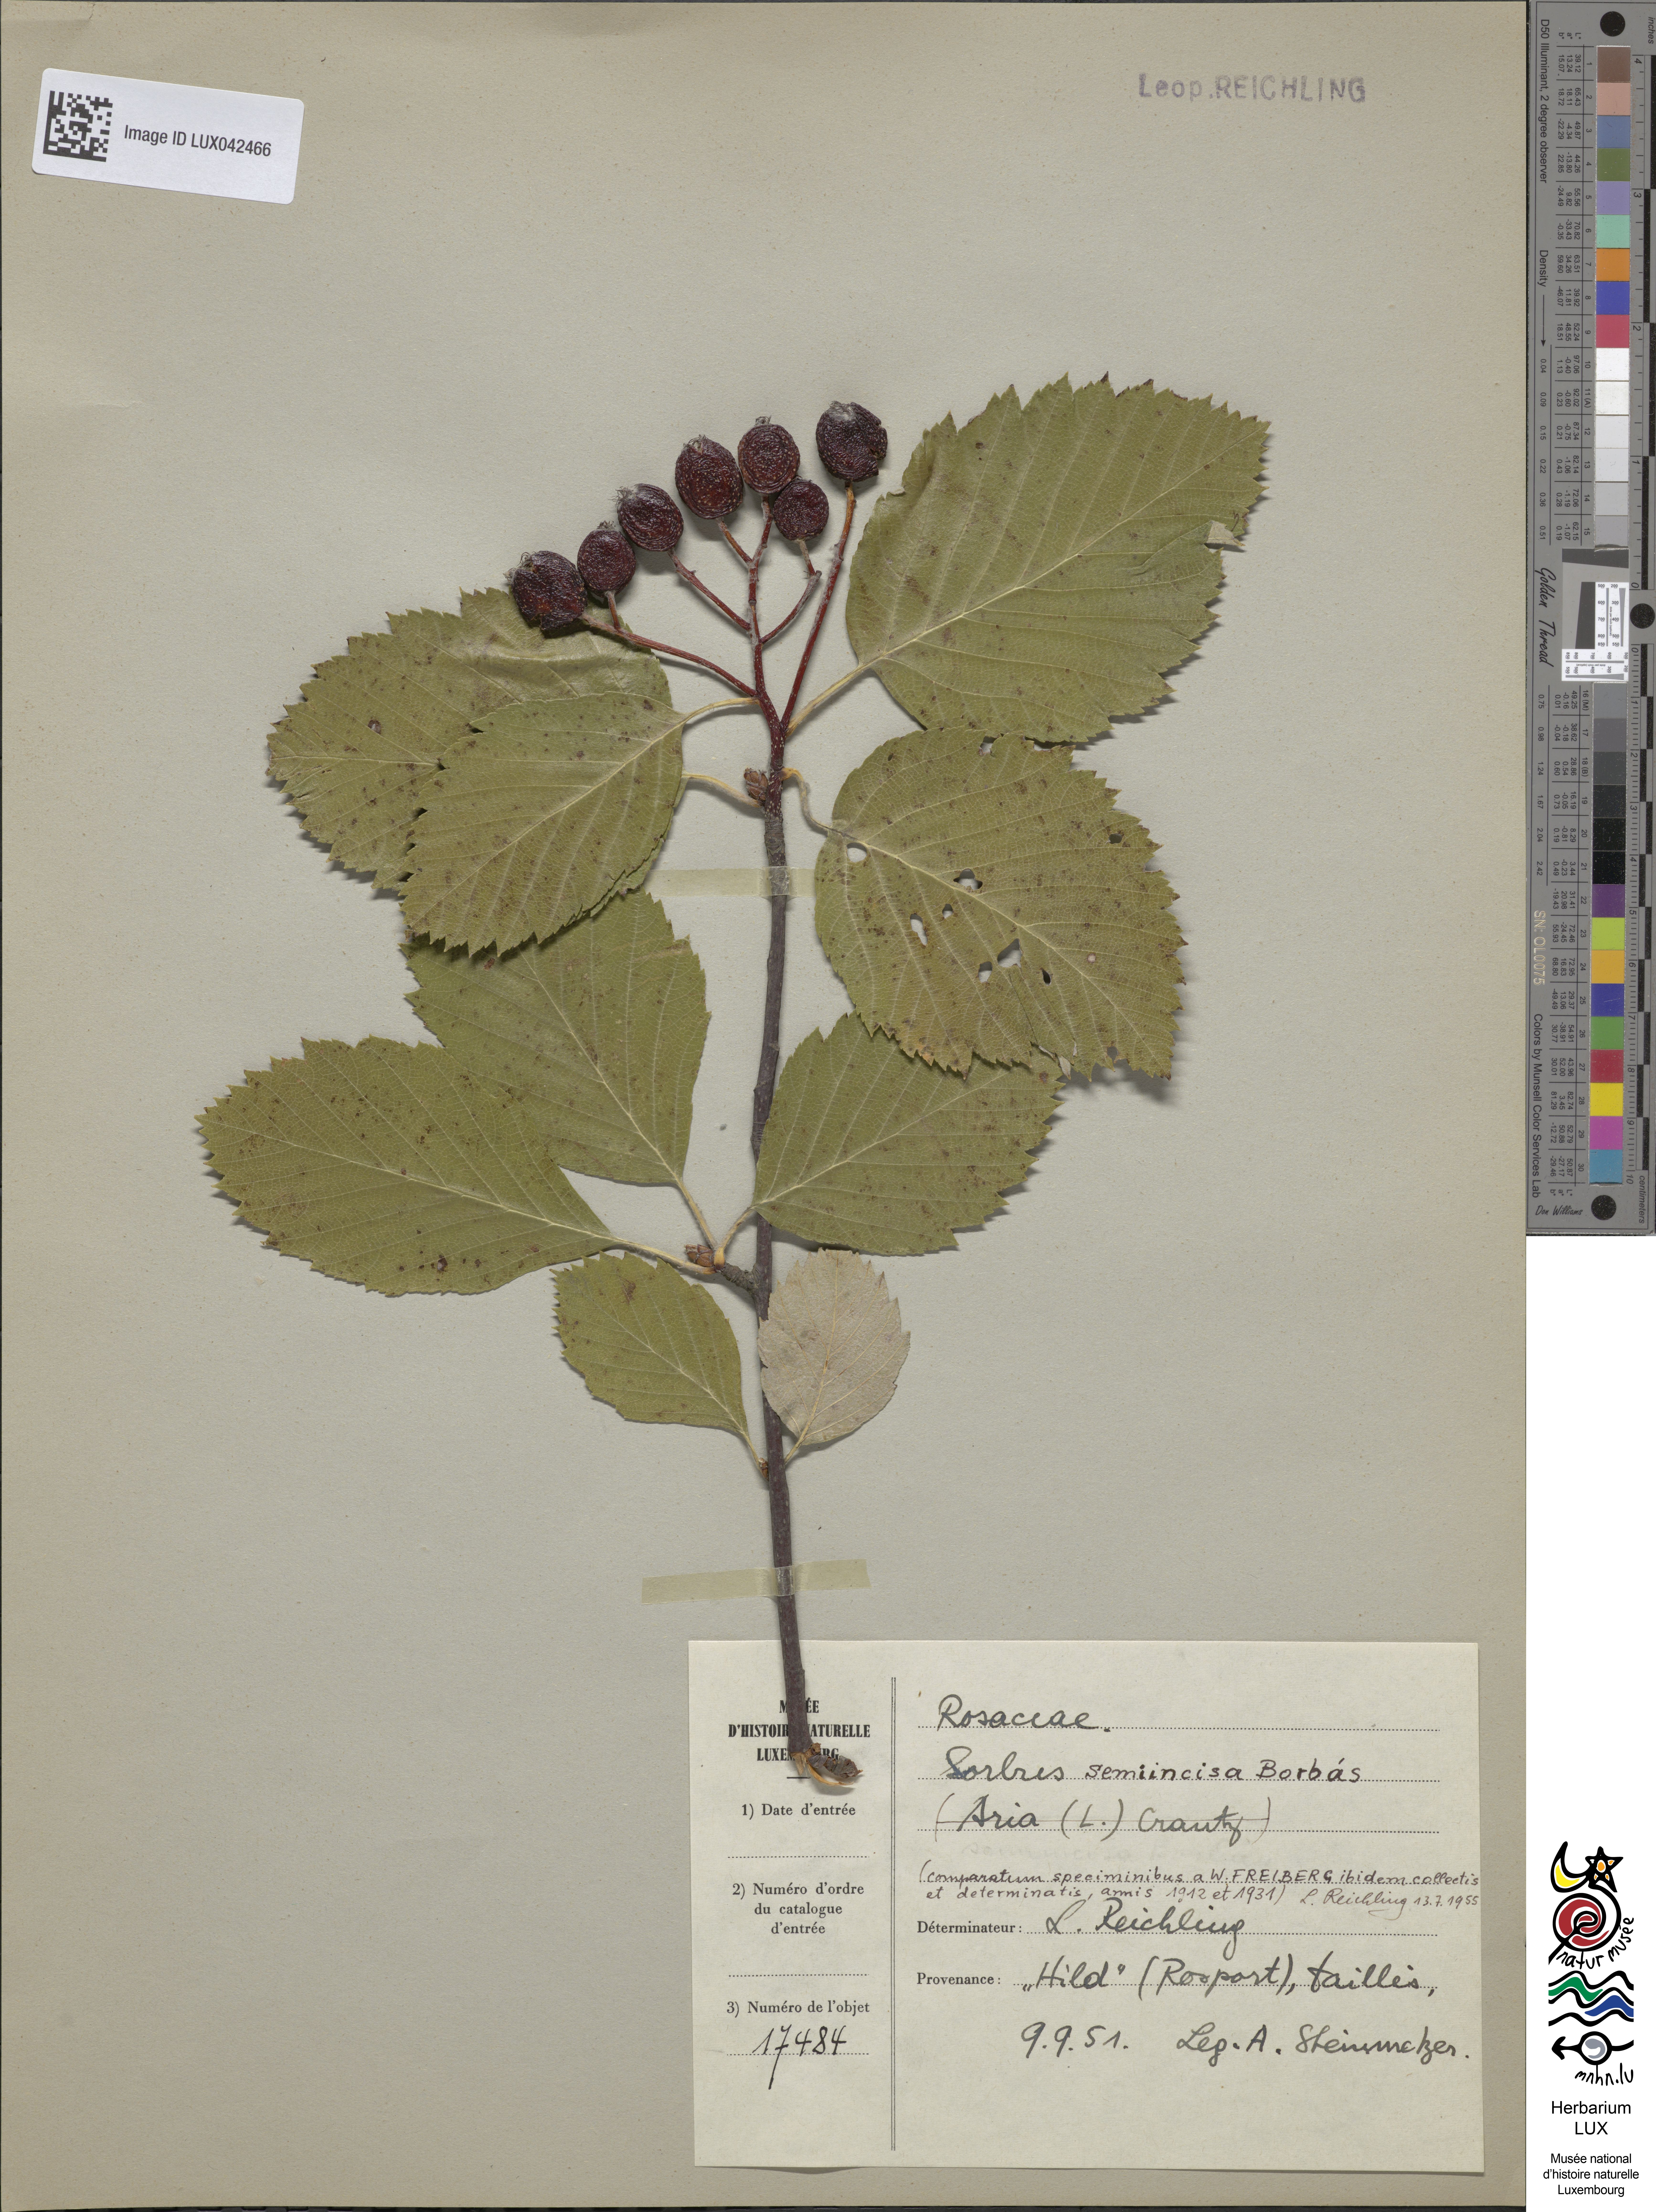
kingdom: Plantae
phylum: Tracheophyta
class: Magnoliopsida
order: Rosales
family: Rosaceae
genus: Aria
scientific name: Aria edulis
